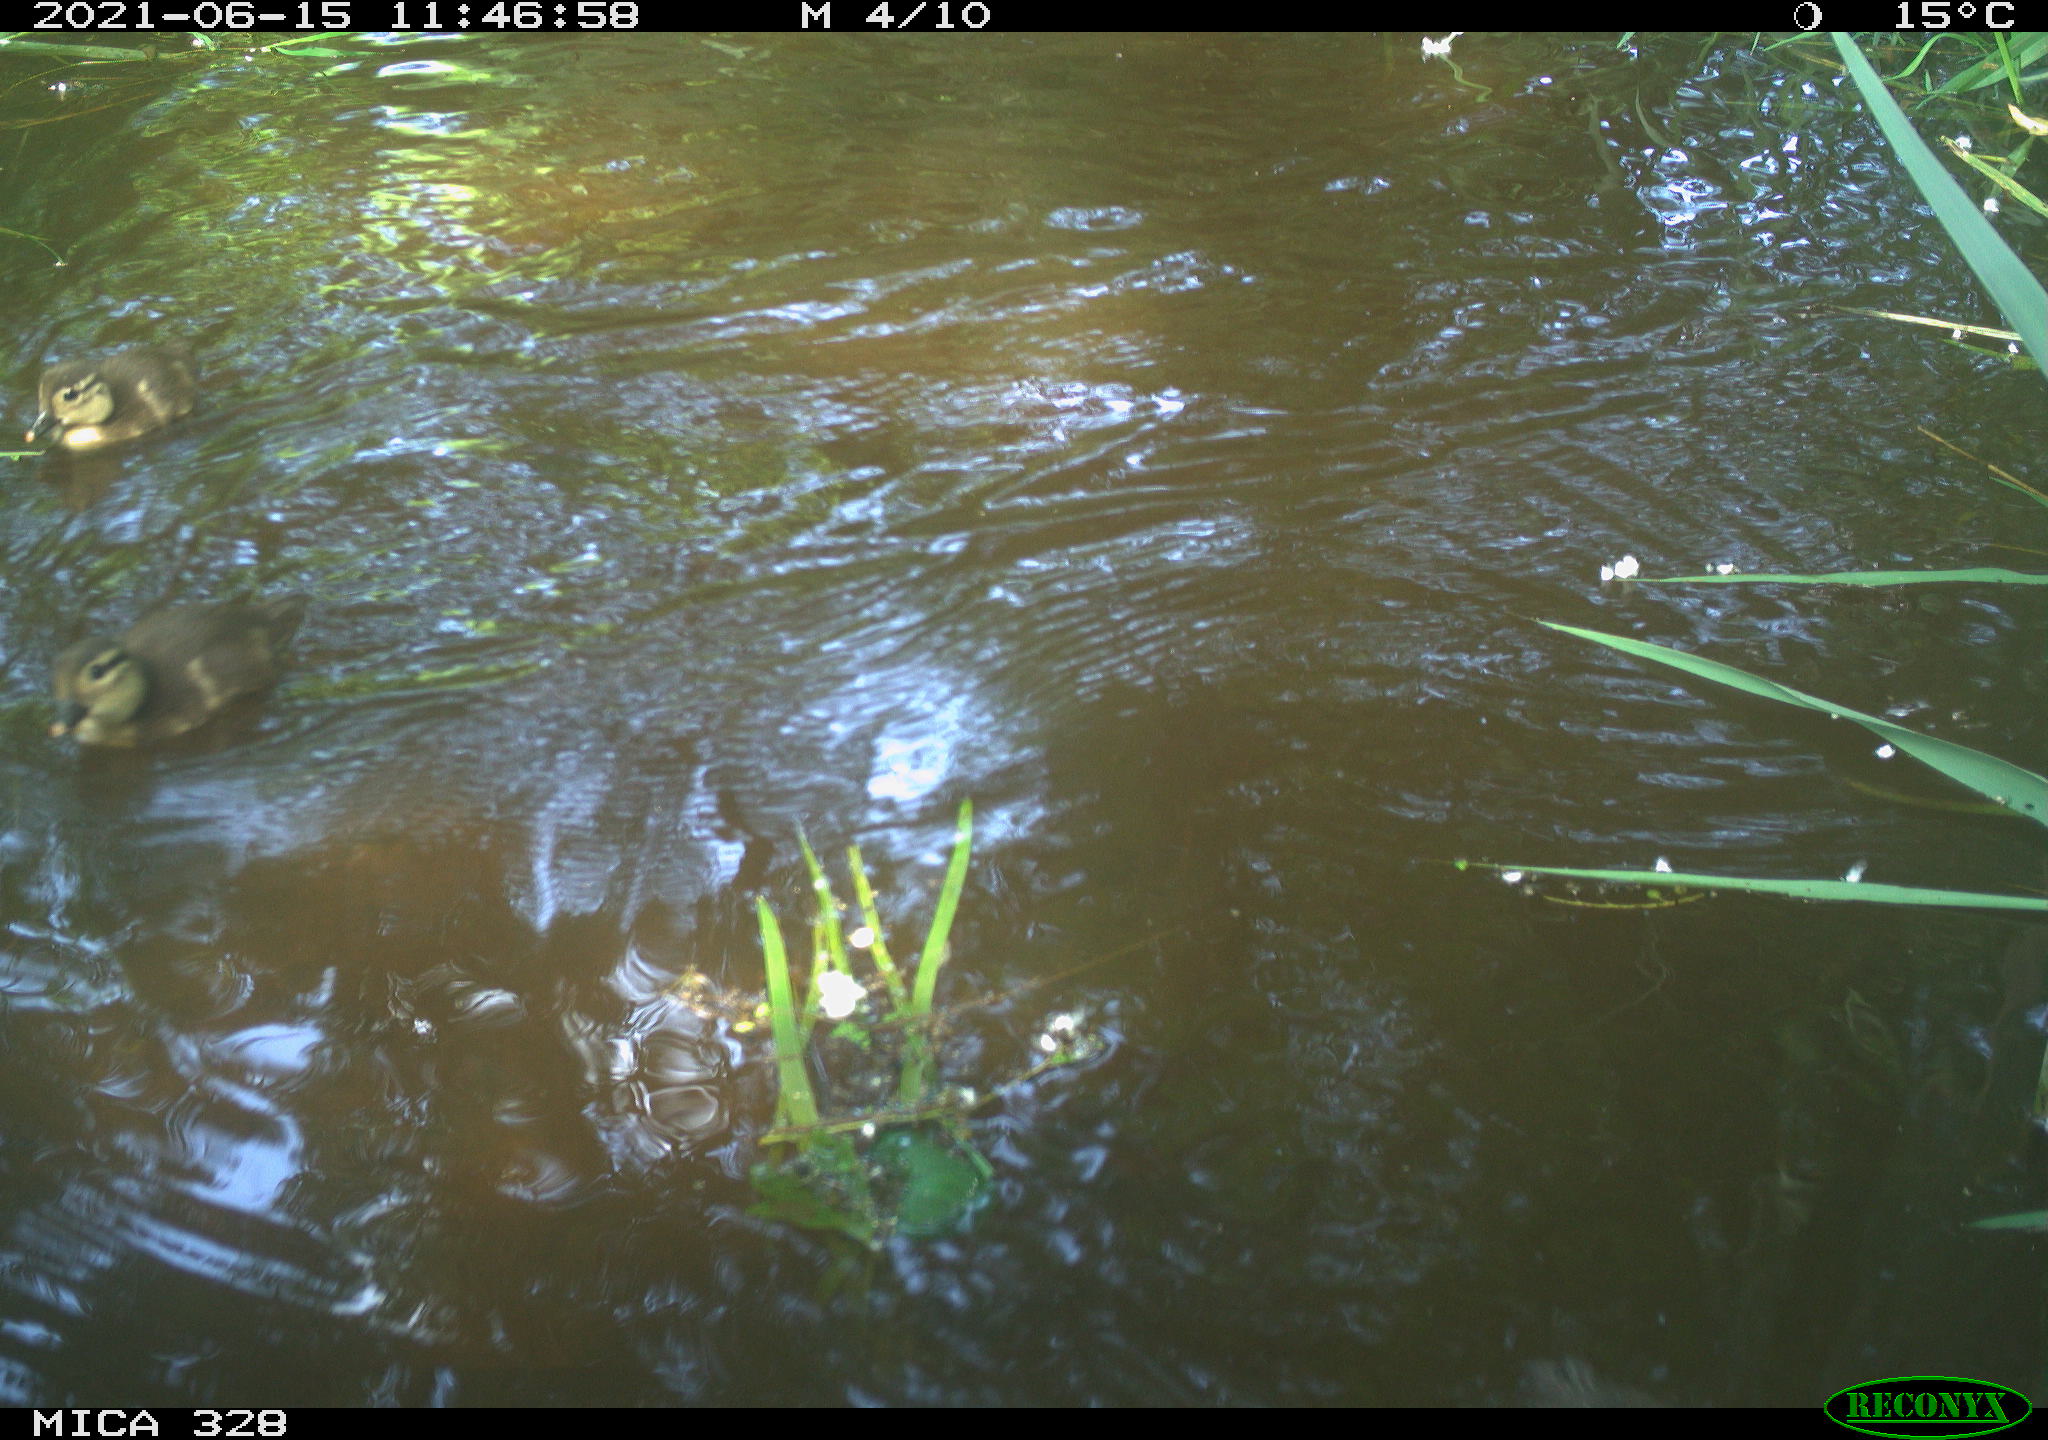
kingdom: Animalia
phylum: Chordata
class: Aves
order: Anseriformes
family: Anatidae
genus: Aix
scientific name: Aix galericulata
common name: Mandarin duck
